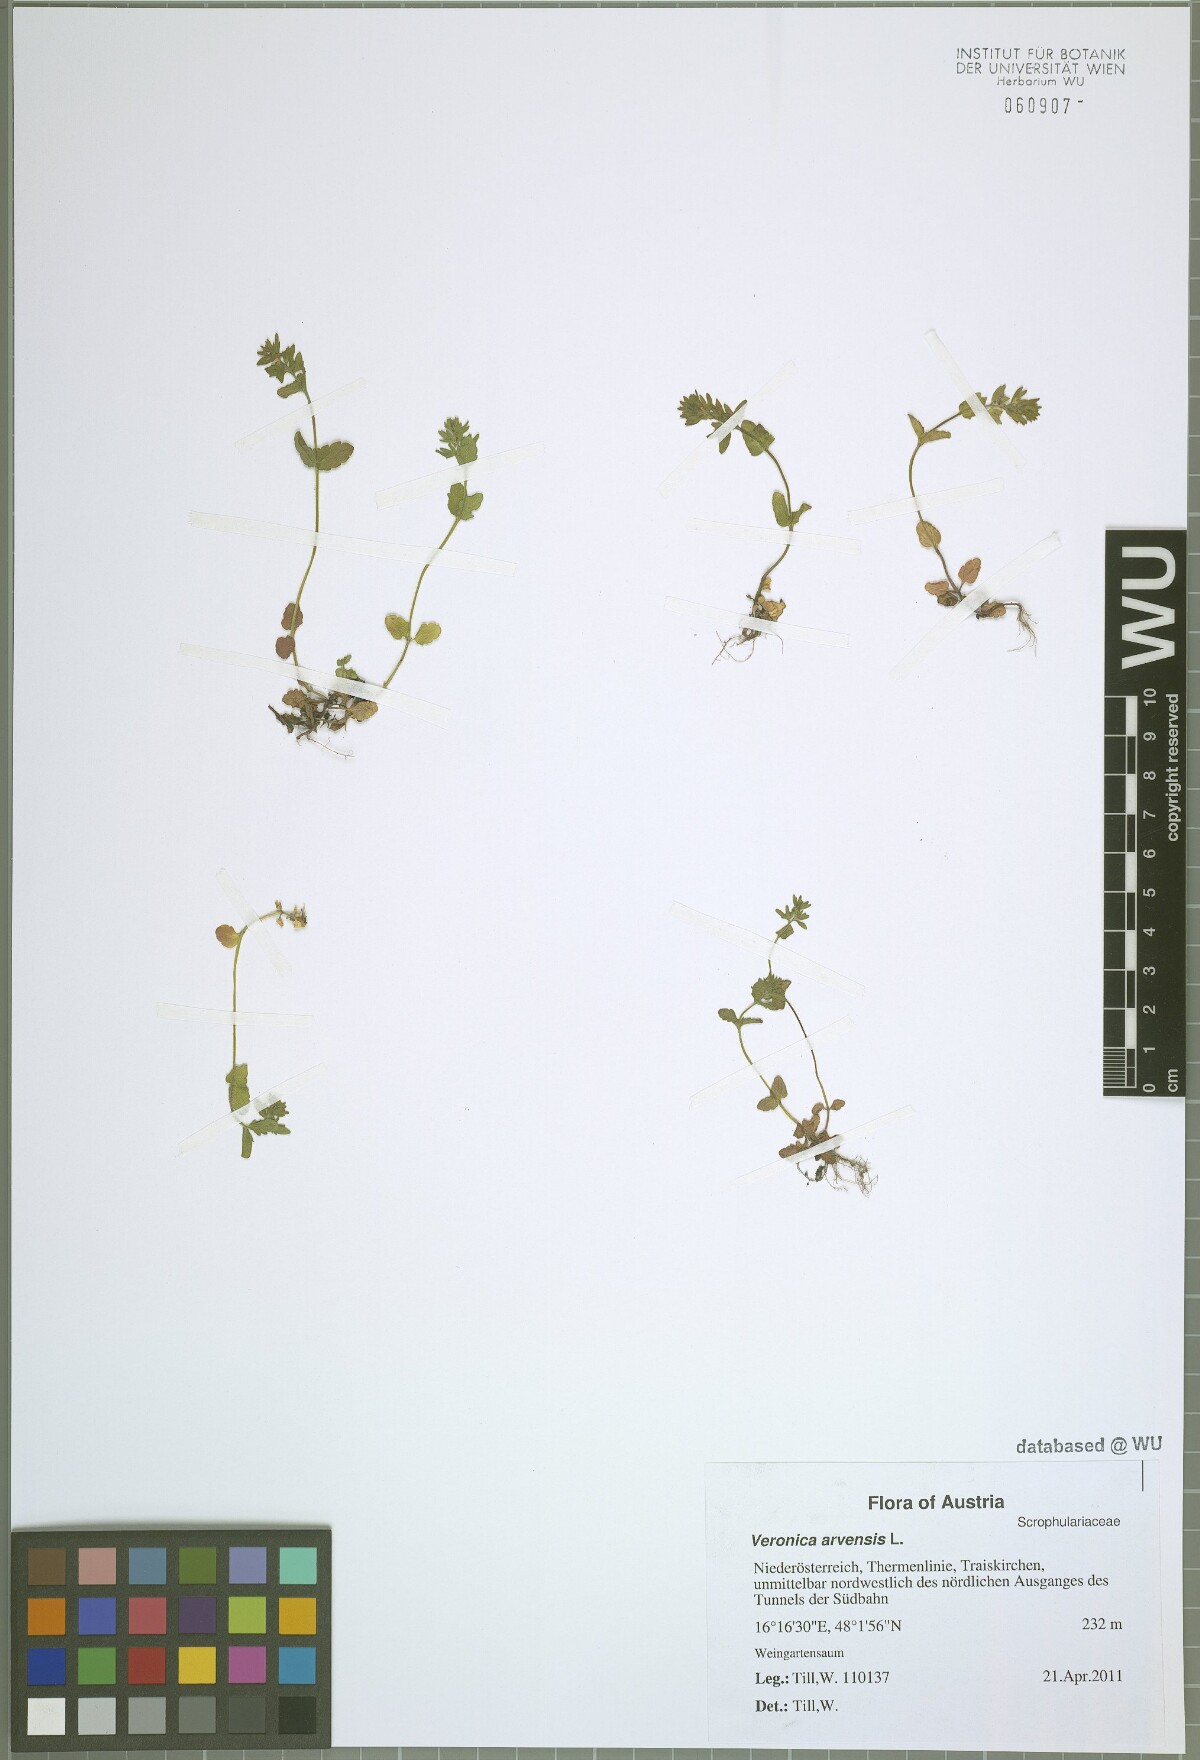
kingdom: Plantae
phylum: Tracheophyta
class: Magnoliopsida
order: Lamiales
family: Plantaginaceae
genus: Veronica
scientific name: Veronica arvensis
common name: Corn speedwell
